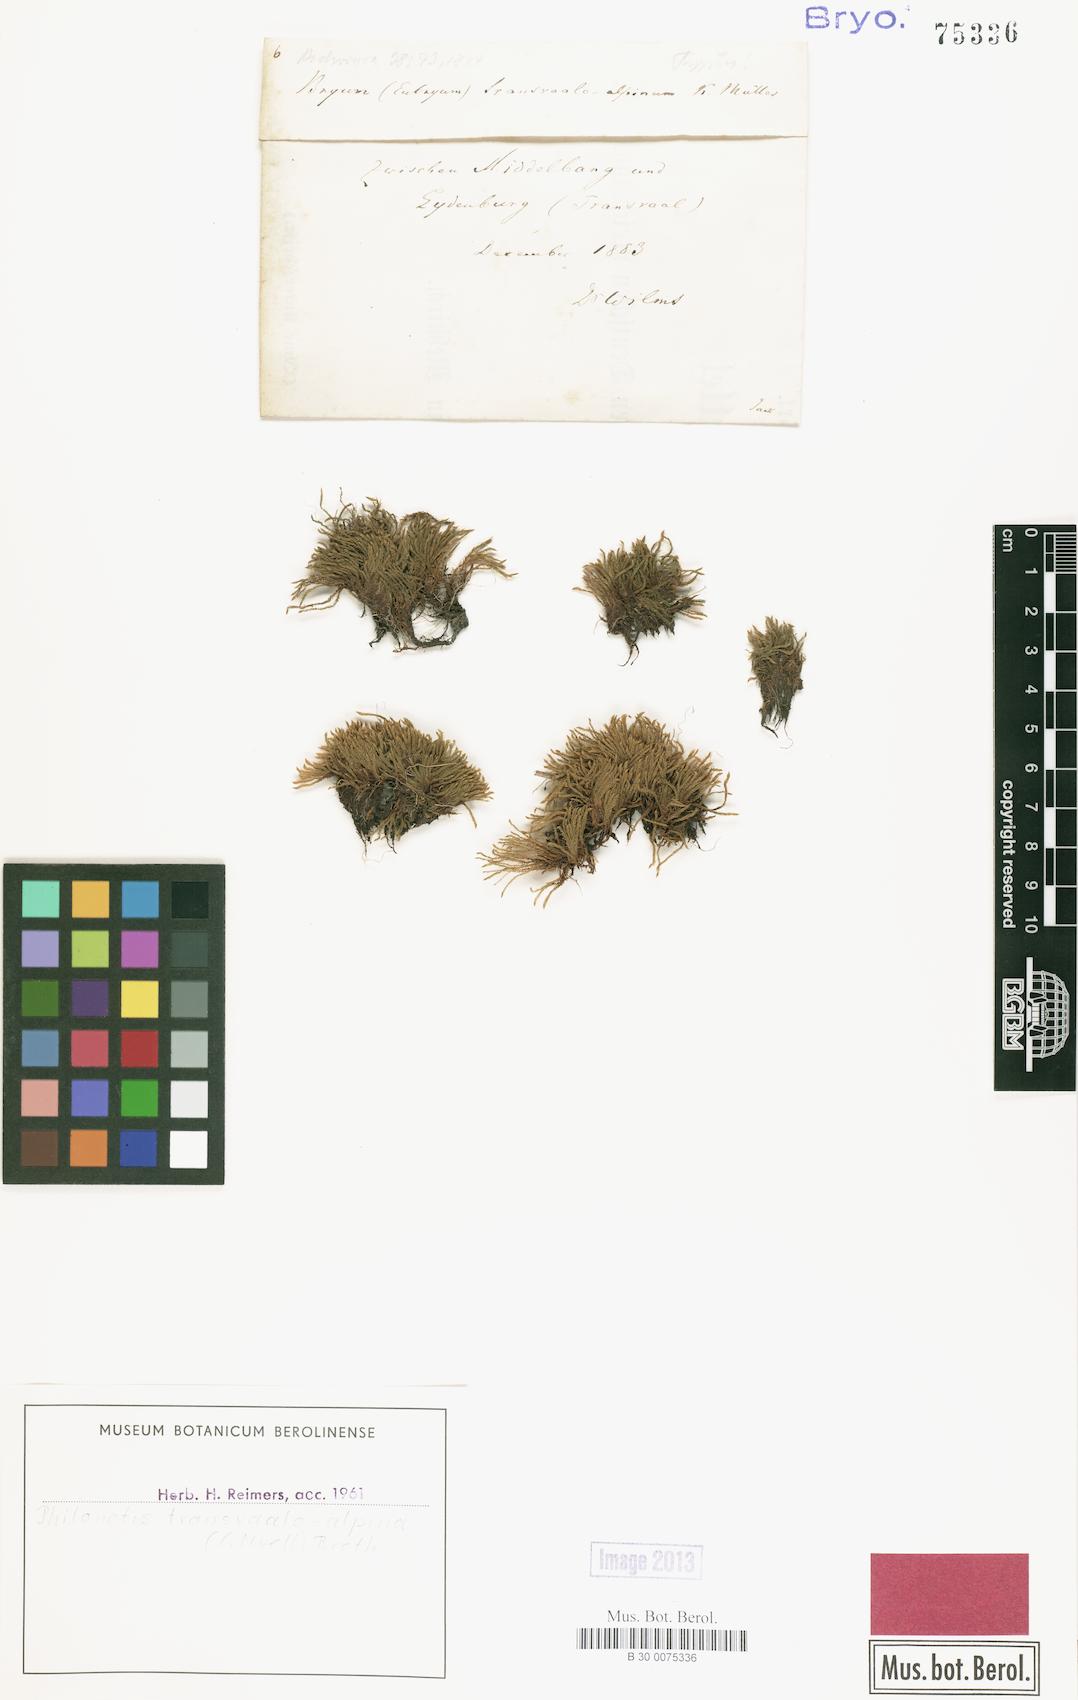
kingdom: Plantae
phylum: Bryophyta
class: Bryopsida
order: Bryales
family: Bryaceae
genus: Imbribryum
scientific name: Imbribryum alpinum
